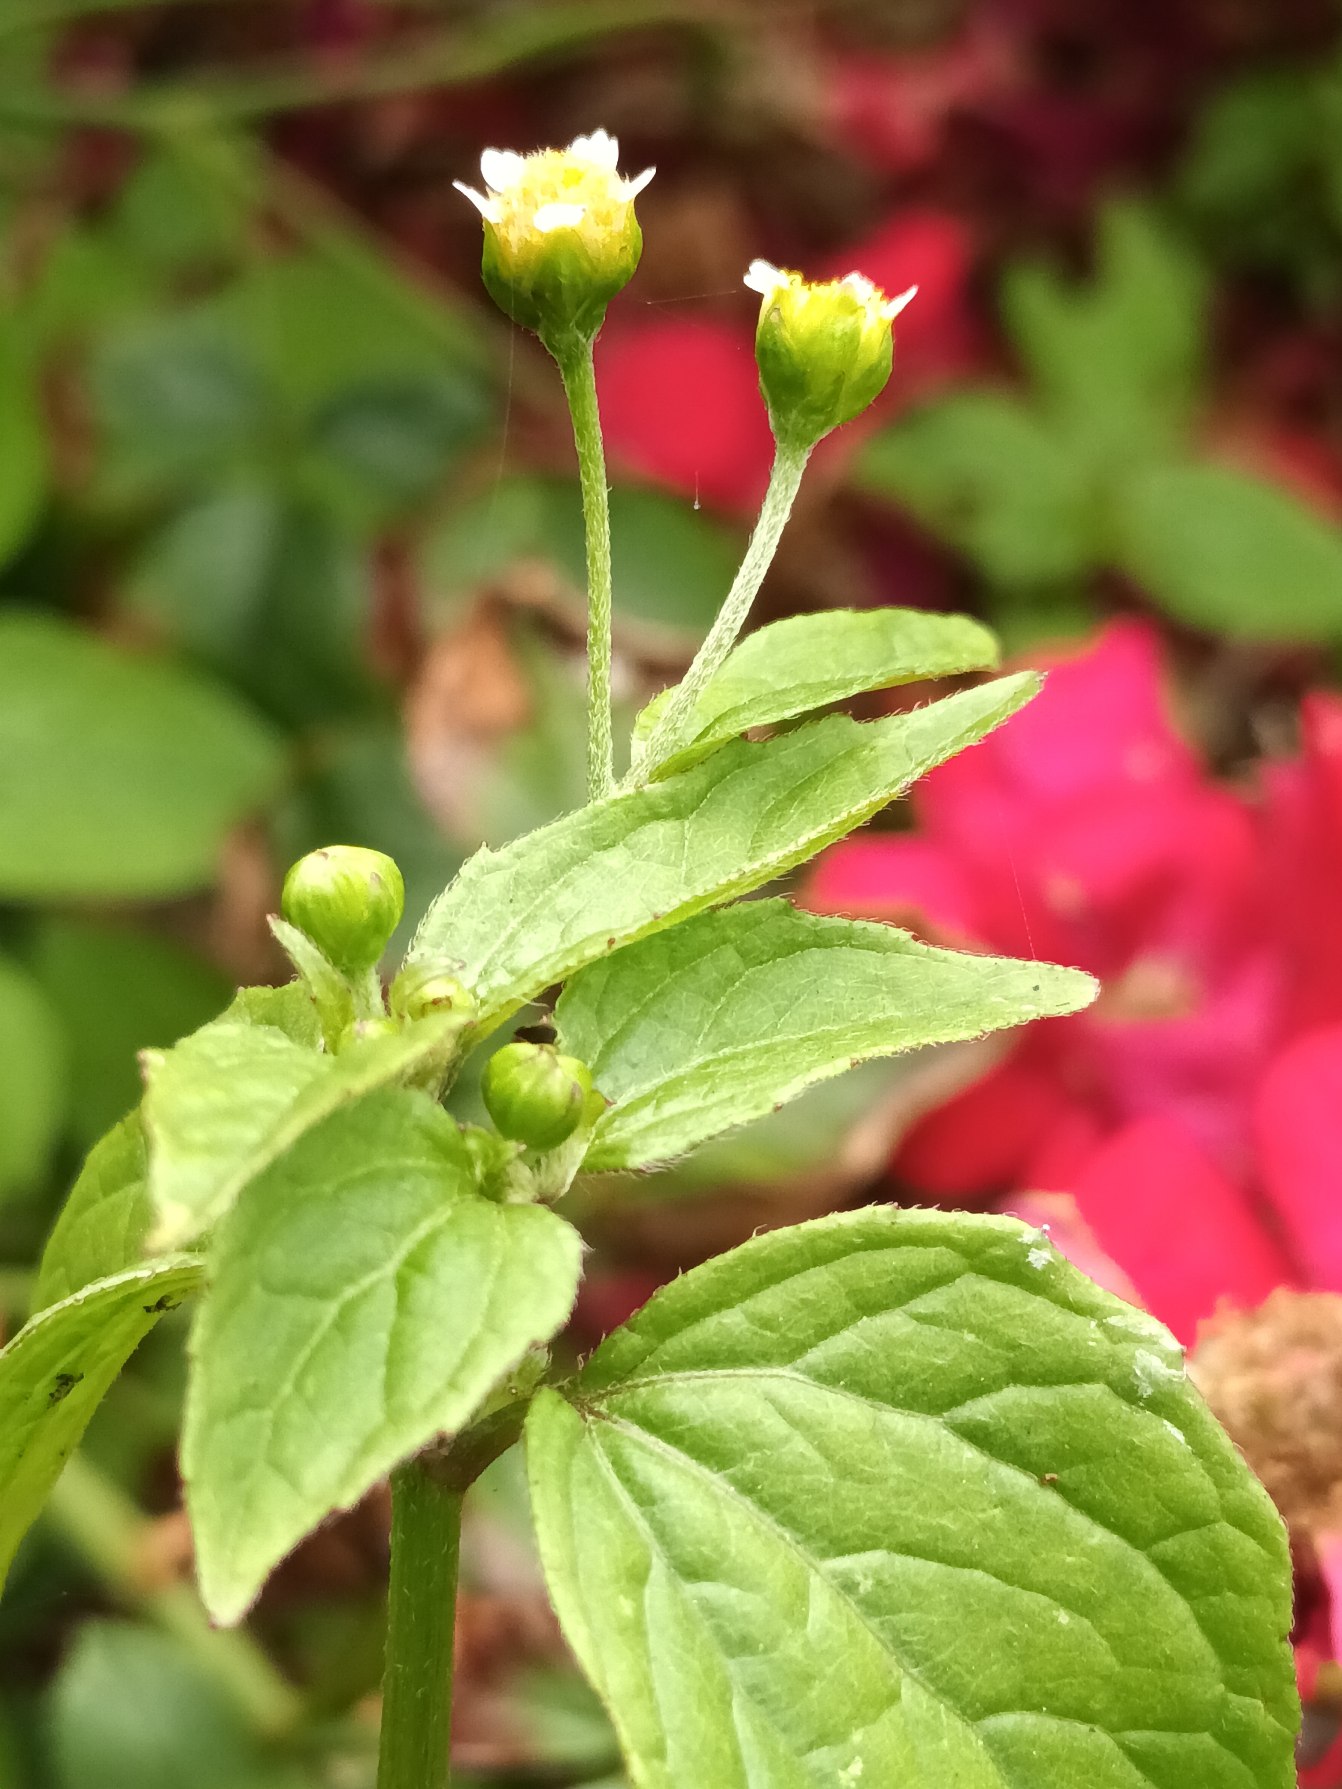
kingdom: Plantae
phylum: Tracheophyta
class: Magnoliopsida
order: Asterales
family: Asteraceae
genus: Galinsoga
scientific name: Galinsoga parviflora
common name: Håret kortstråle
